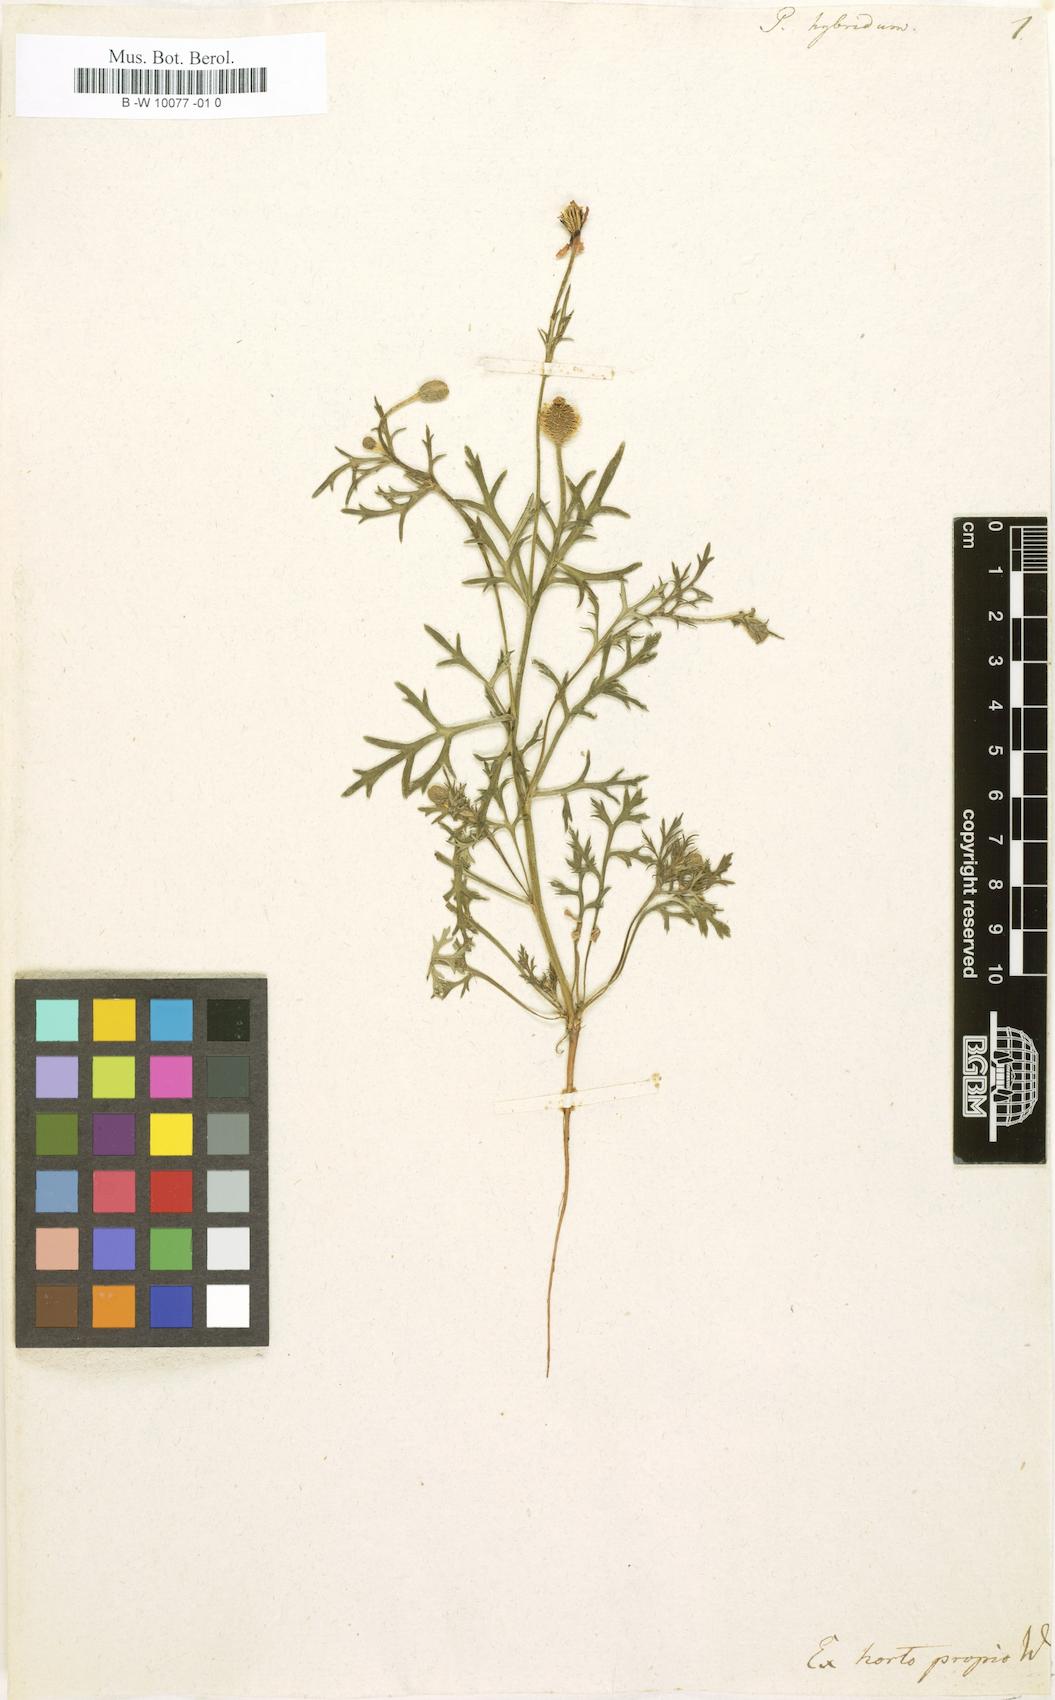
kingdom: Plantae
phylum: Tracheophyta
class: Magnoliopsida
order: Ranunculales
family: Papaveraceae
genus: Roemeria
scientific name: Roemeria hispida
